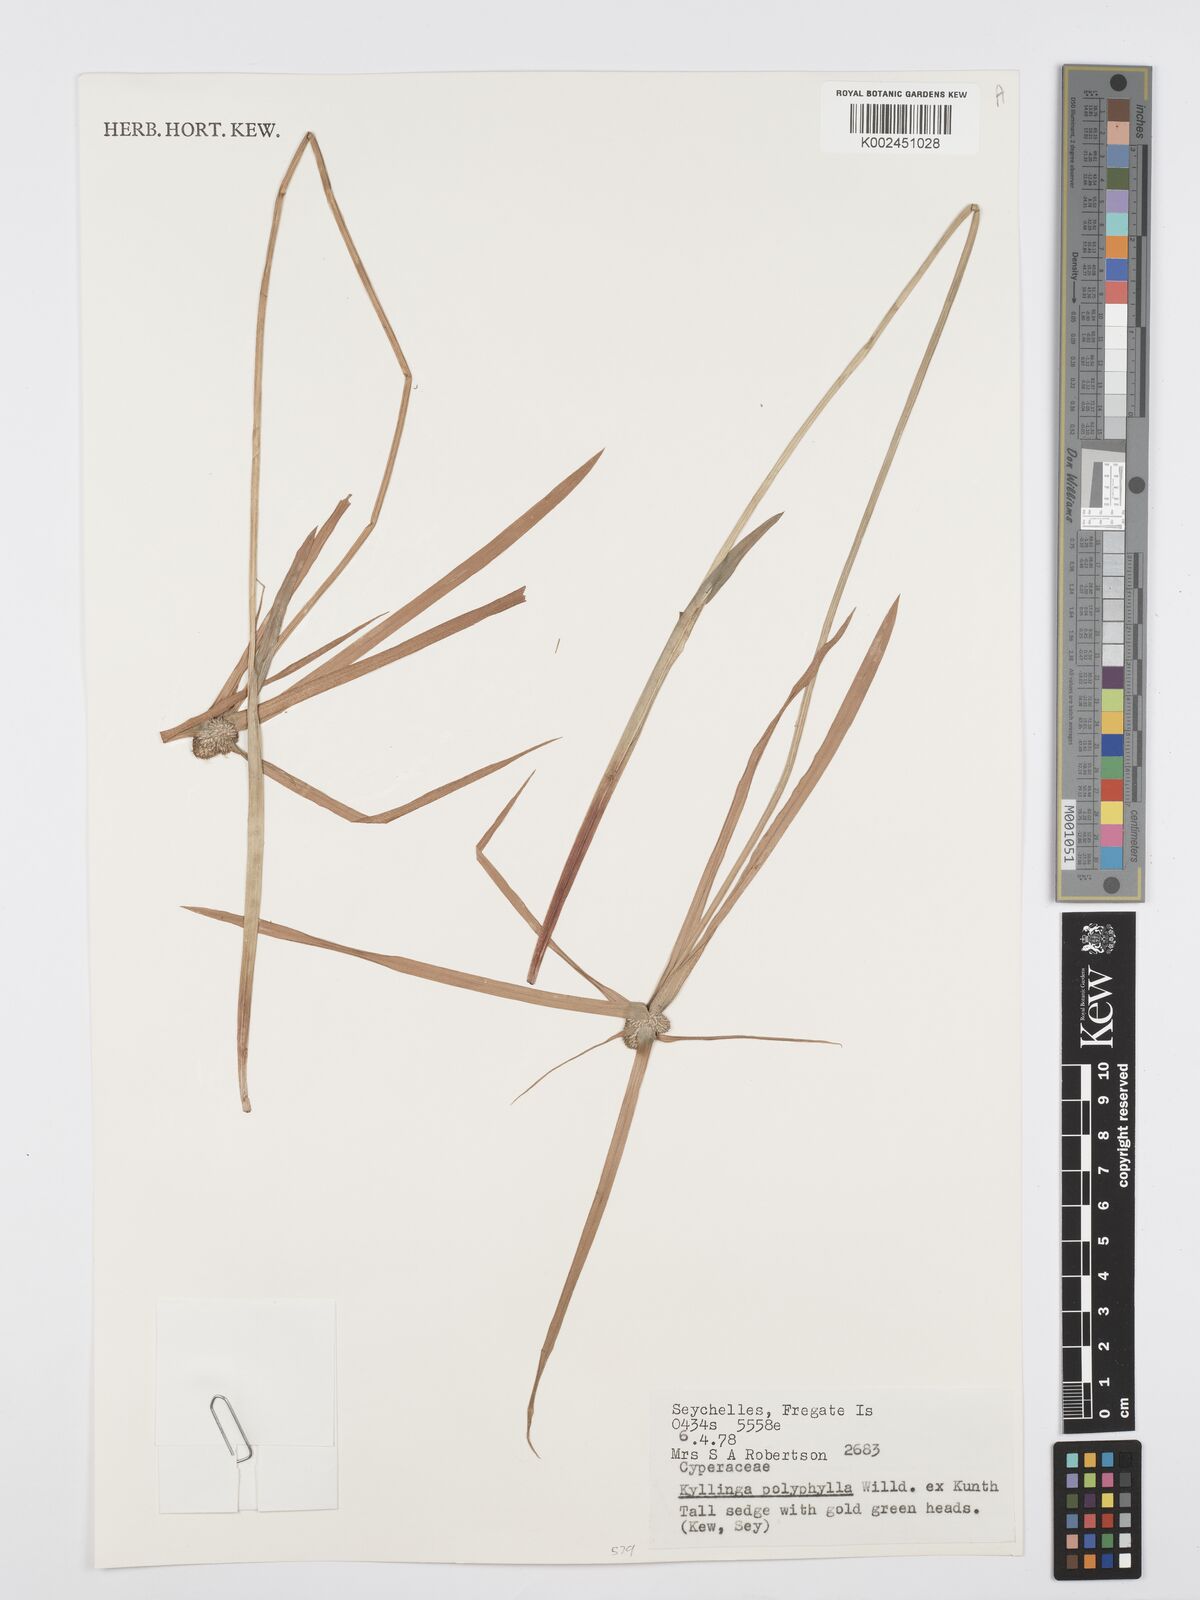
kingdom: Plantae
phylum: Tracheophyta
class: Liliopsida
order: Poales
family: Cyperaceae
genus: Cyperus
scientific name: Cyperus bulbosus
